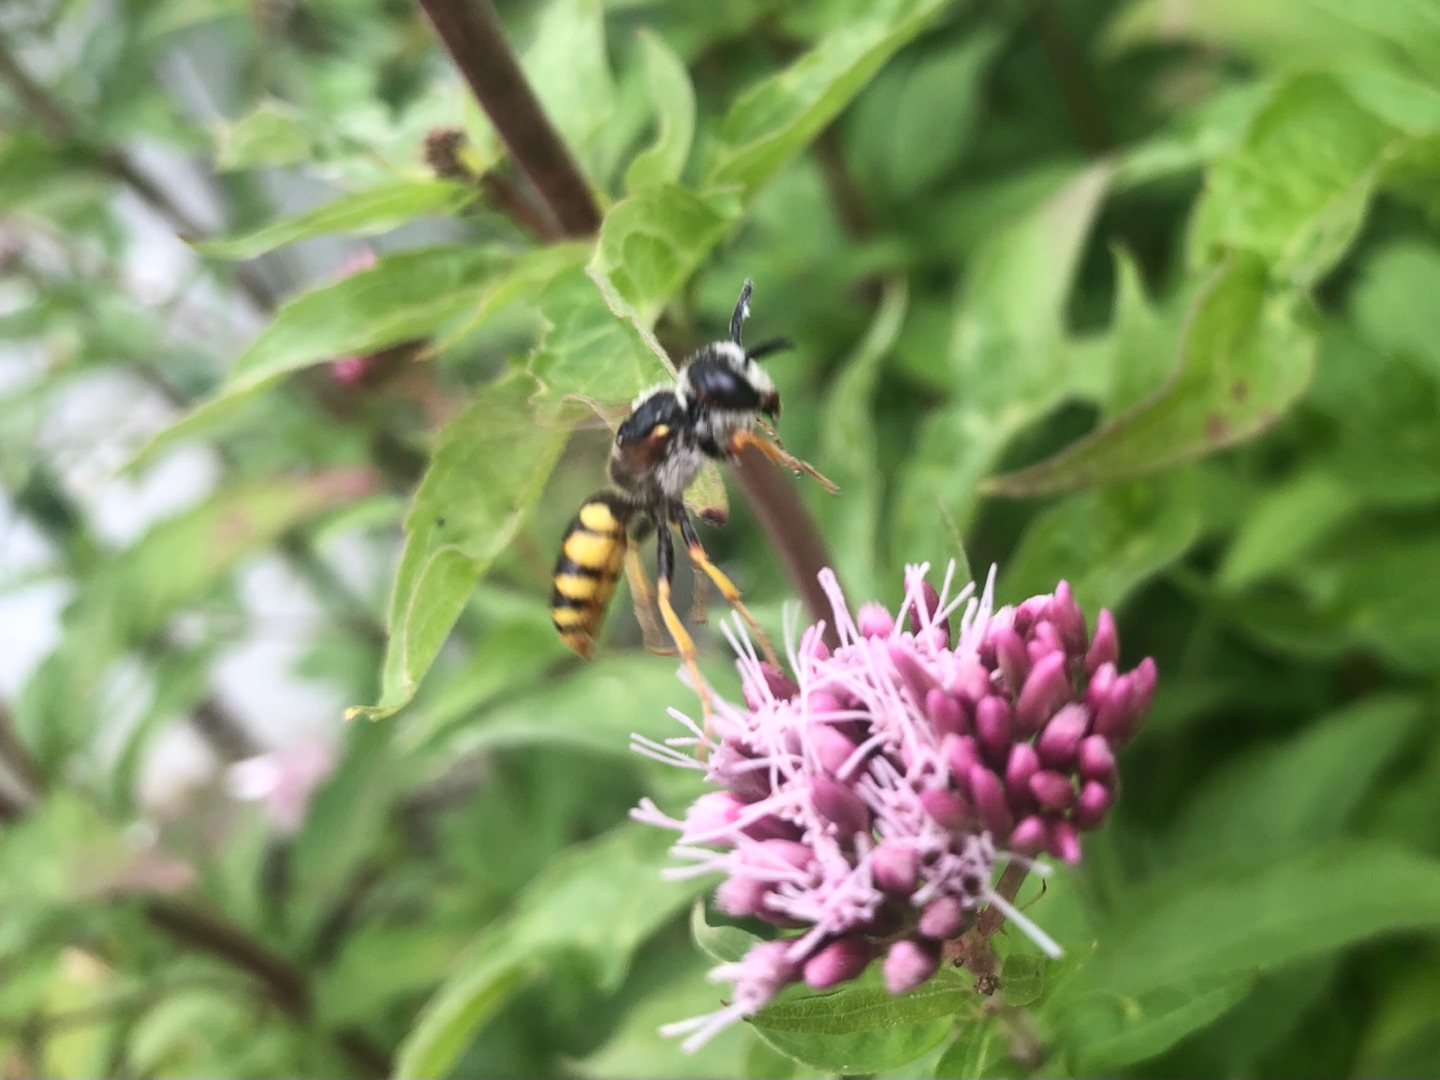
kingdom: Animalia
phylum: Arthropoda
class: Insecta
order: Hymenoptera
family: Crabronidae
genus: Philanthus
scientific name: Philanthus triangulum
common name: Biulv
